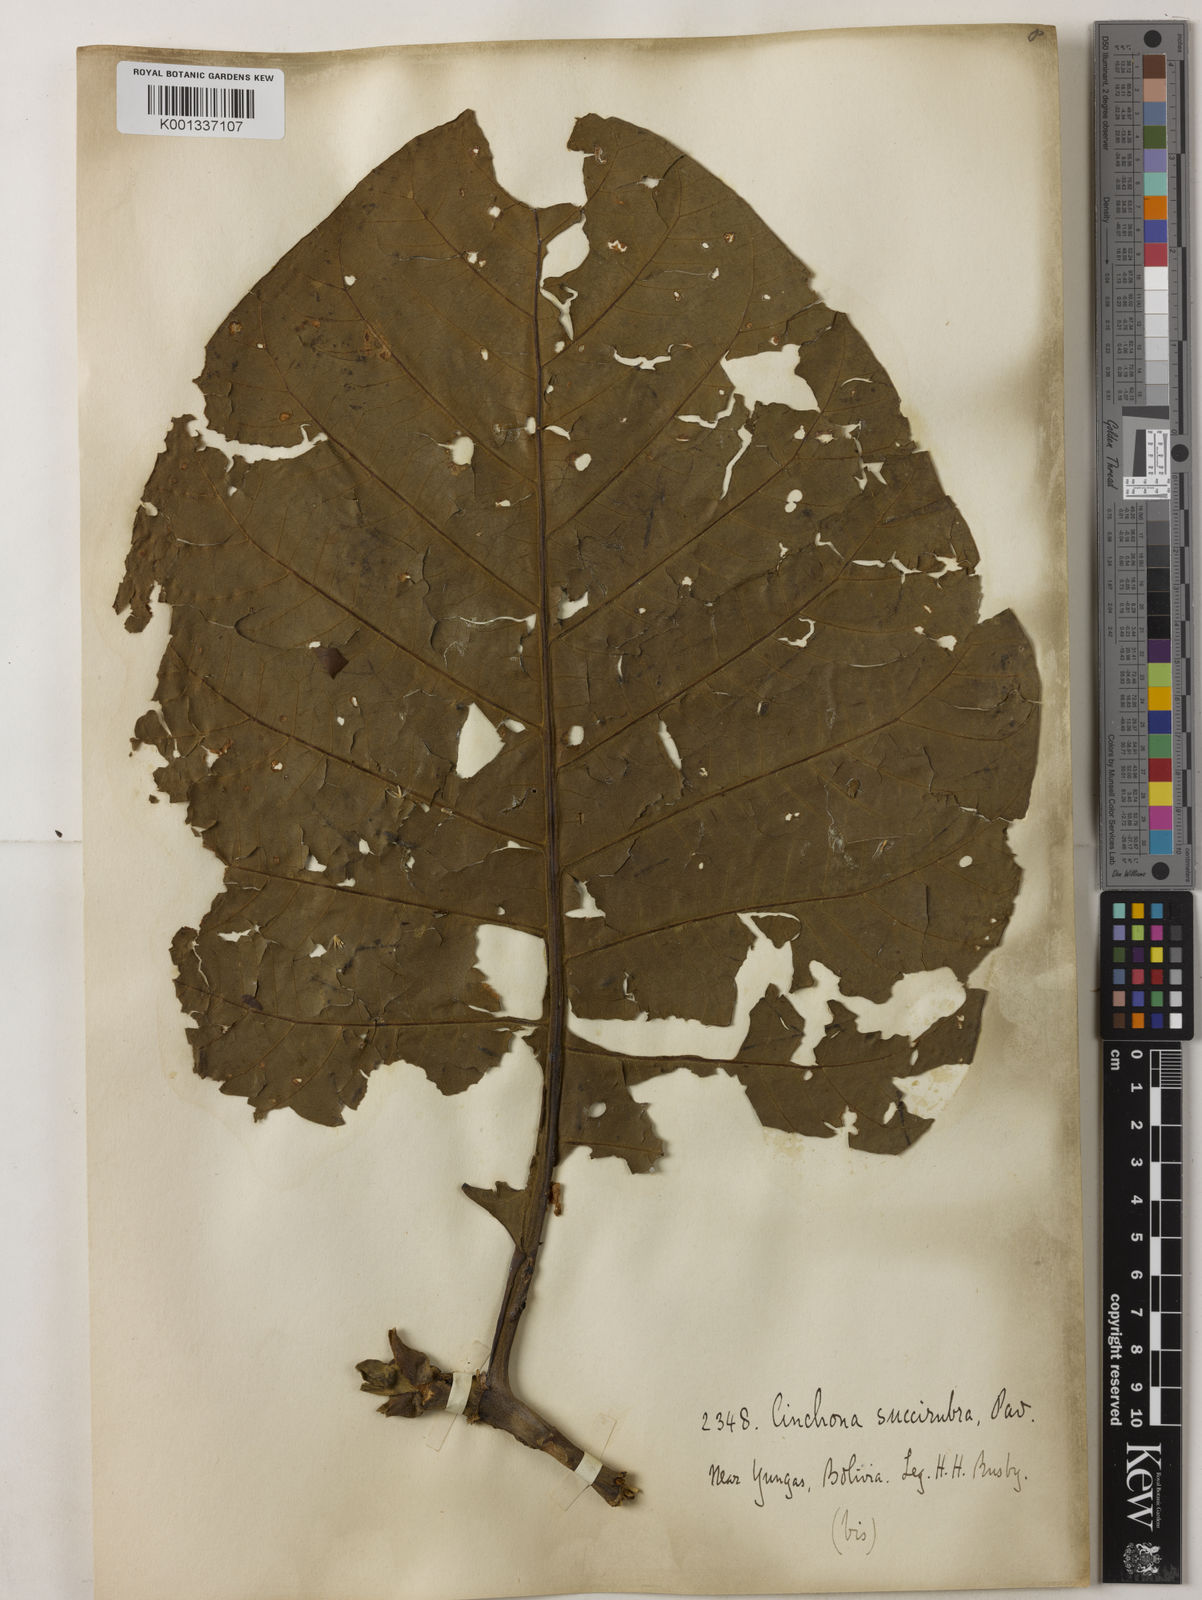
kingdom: Plantae
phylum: Tracheophyta
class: Magnoliopsida
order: Gentianales
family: Rubiaceae
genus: Cinchona
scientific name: Cinchona pubescens
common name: Quinine
